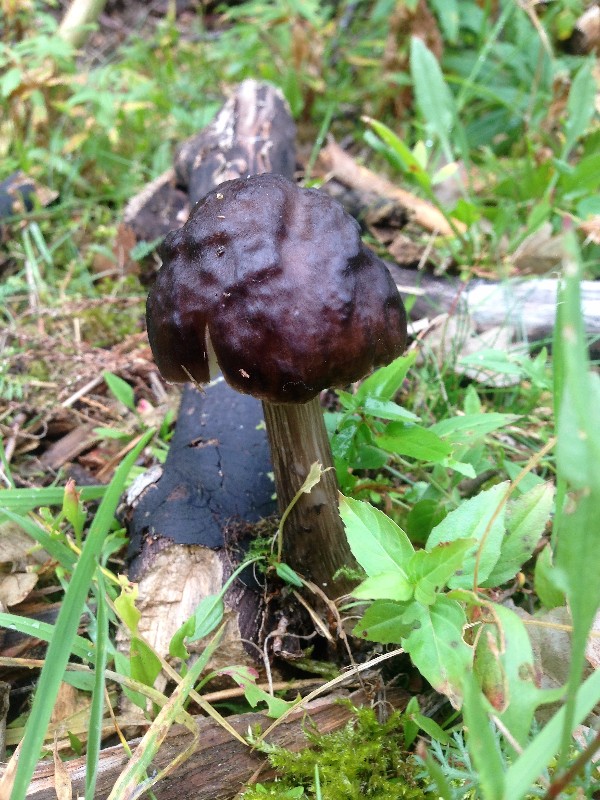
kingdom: Fungi
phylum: Basidiomycota
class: Agaricomycetes
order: Agaricales
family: Pluteaceae
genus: Pluteus
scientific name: Pluteus cervinus
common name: sodfarvet skærmhat
